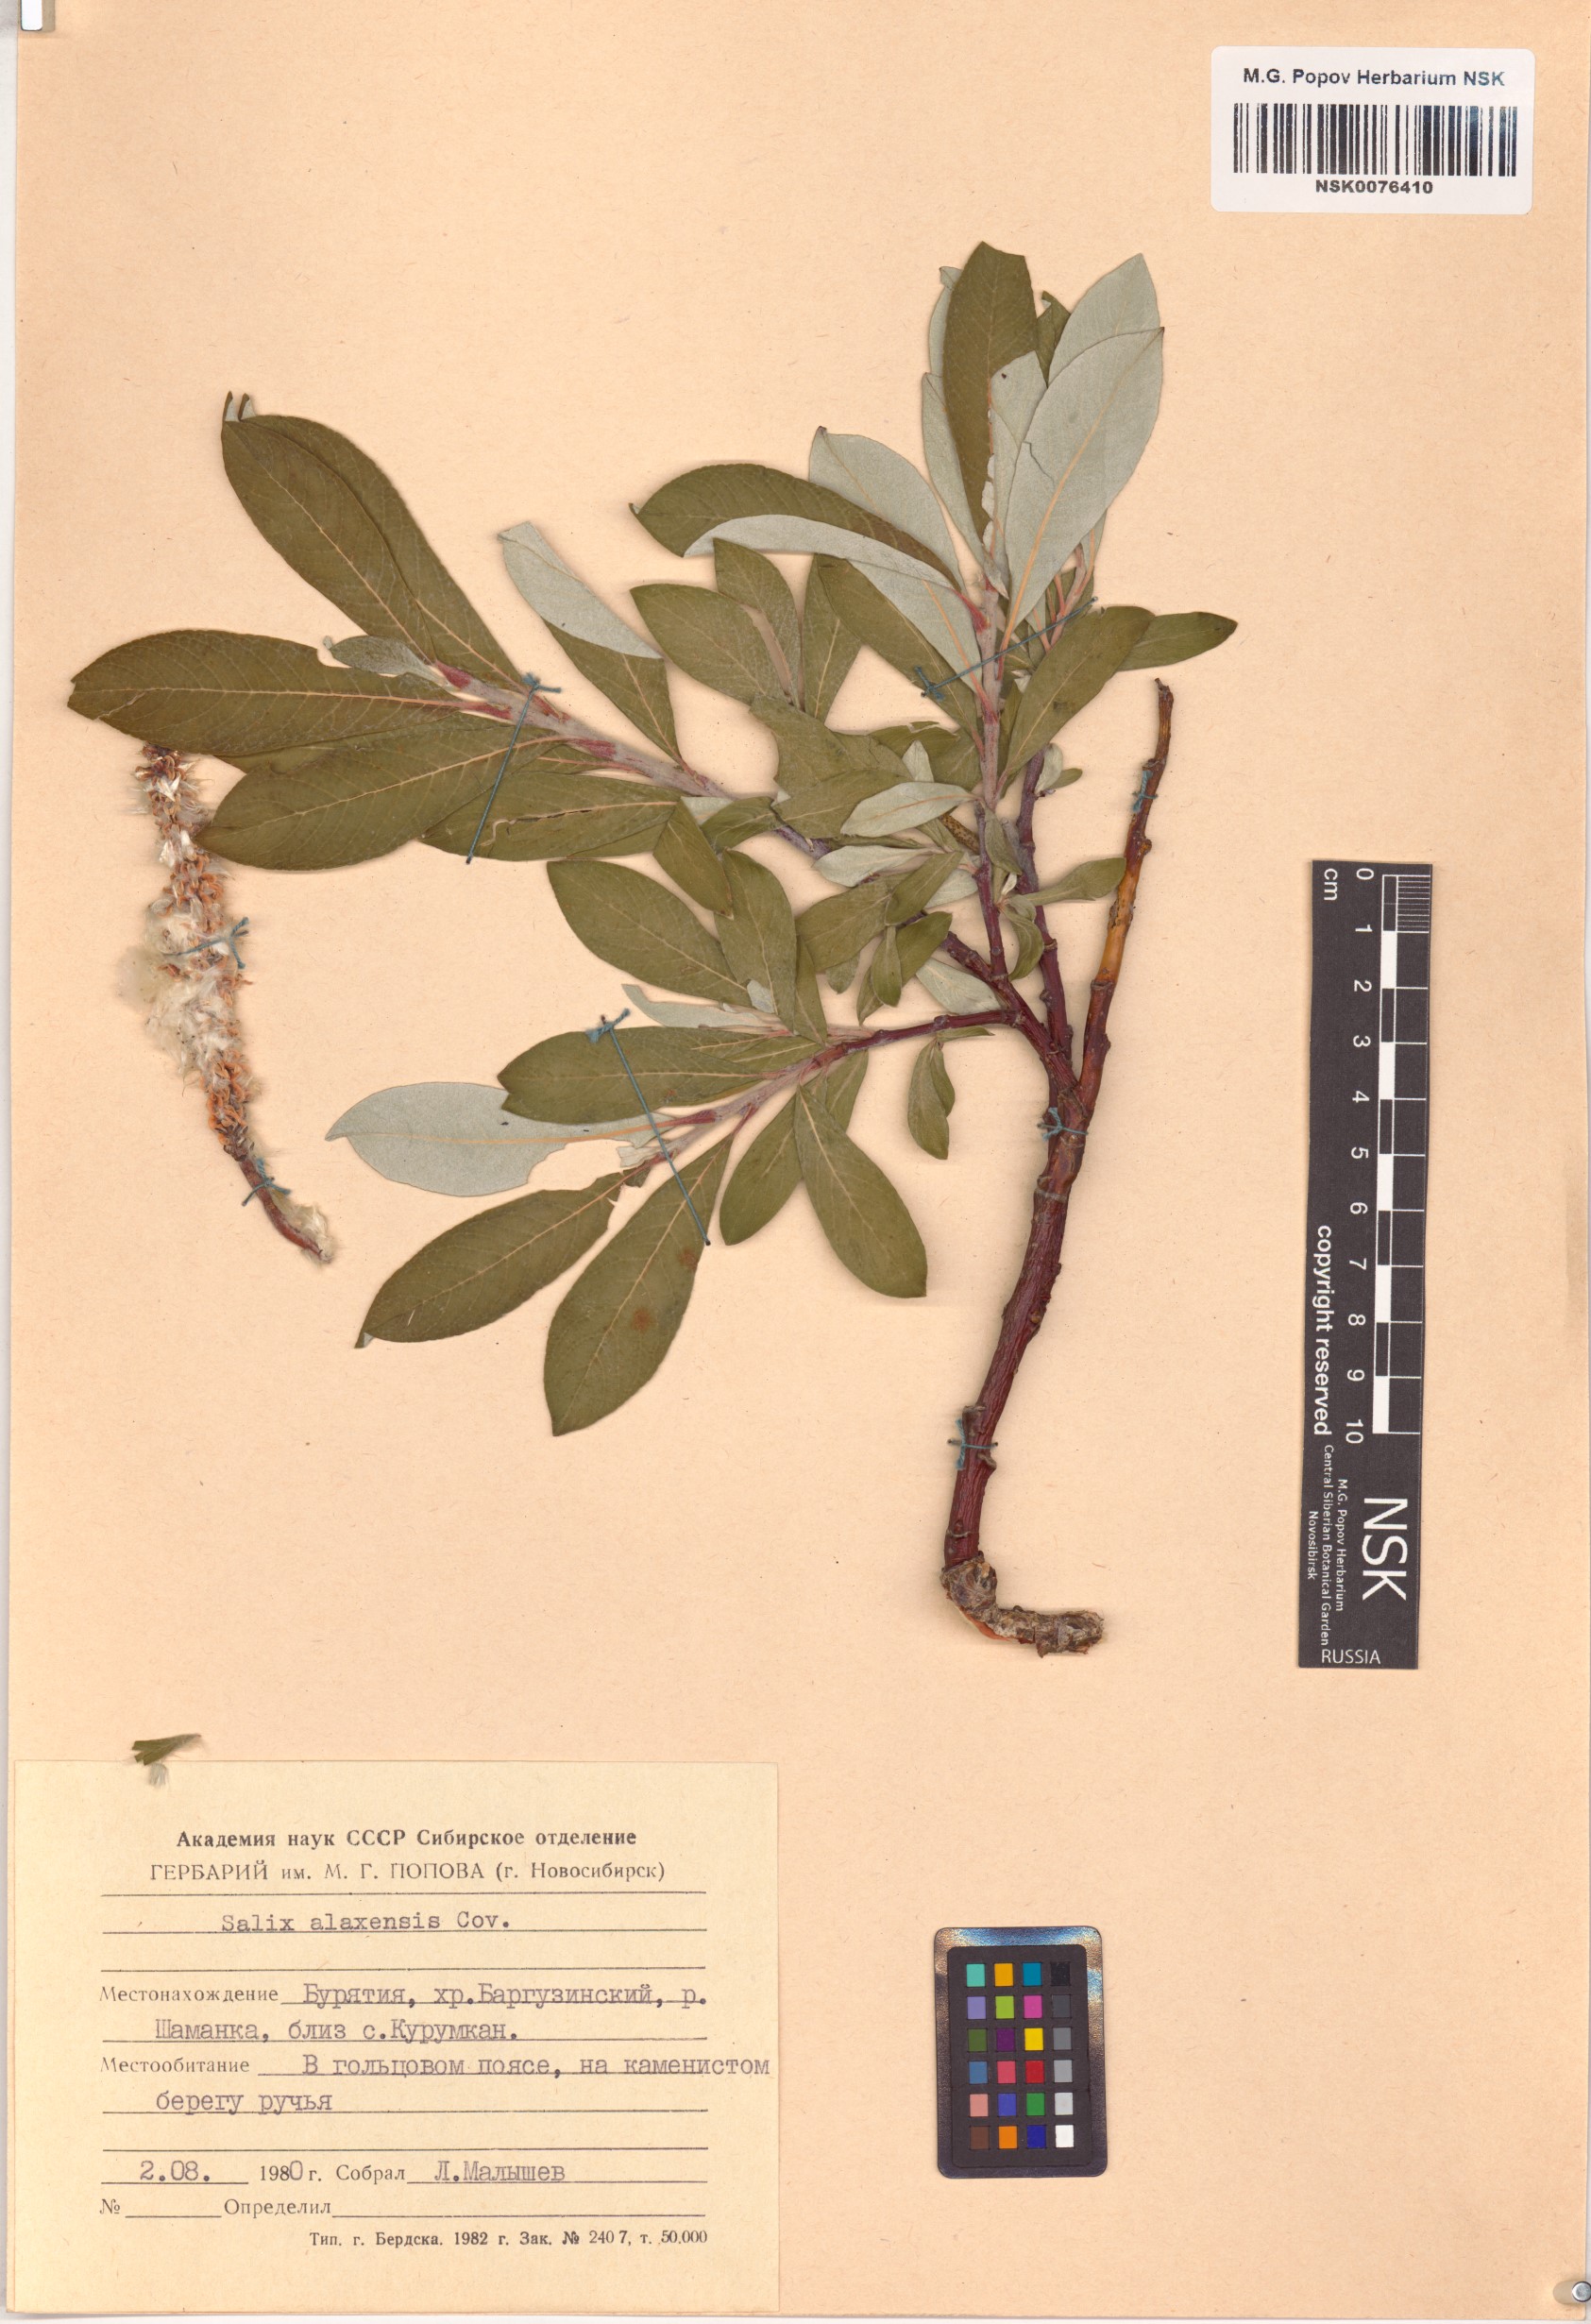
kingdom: Plantae
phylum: Tracheophyta
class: Magnoliopsida
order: Malpighiales
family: Salicaceae
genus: Salix
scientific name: Salix alaxensis
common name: Feltleaf willow
